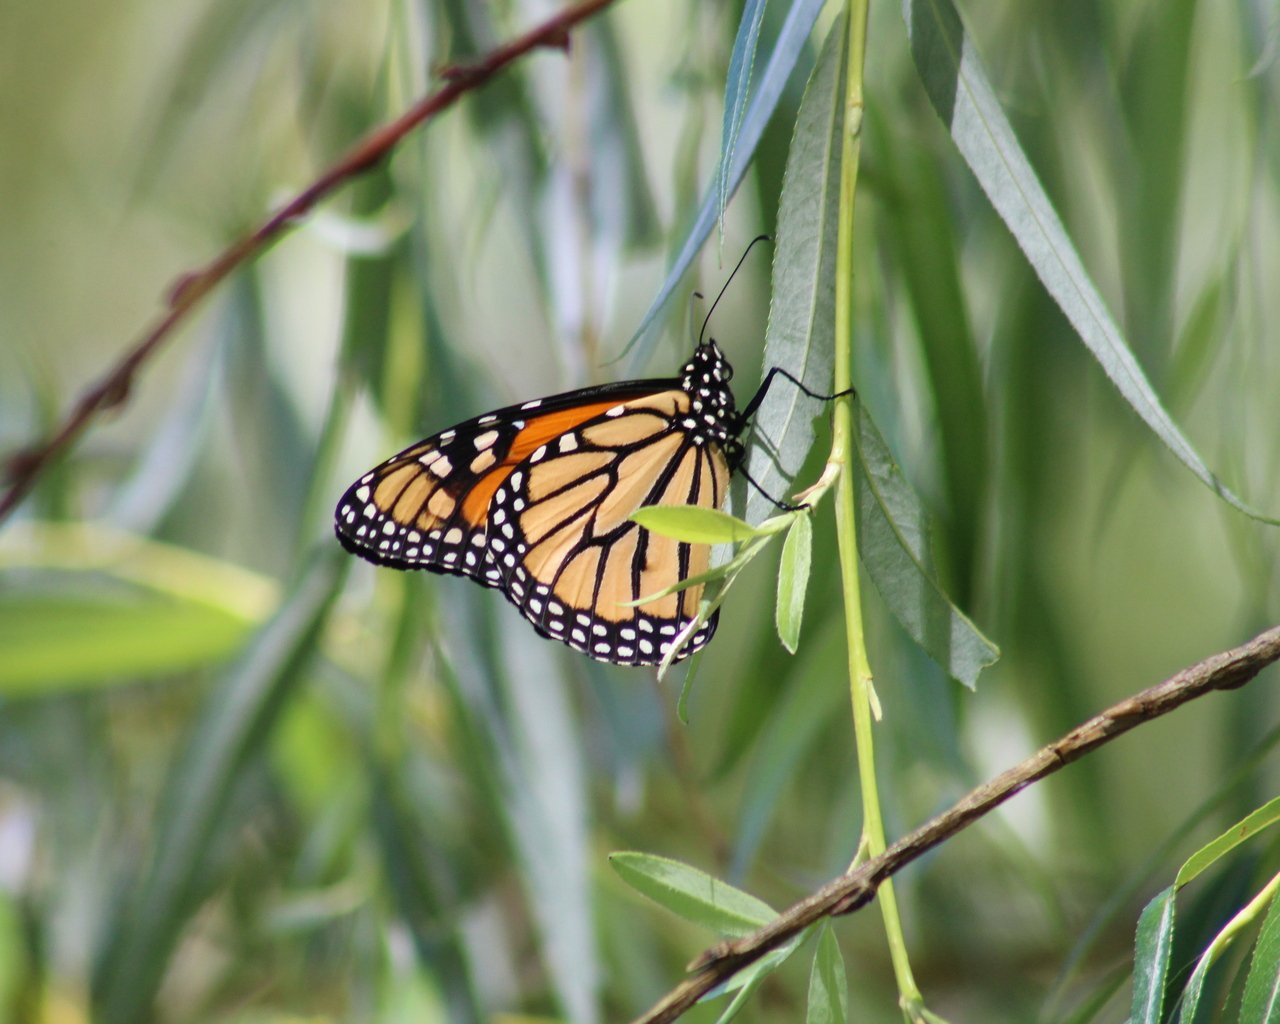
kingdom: Animalia
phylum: Arthropoda
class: Insecta
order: Lepidoptera
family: Nymphalidae
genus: Danaus
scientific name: Danaus plexippus
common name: Monarch
